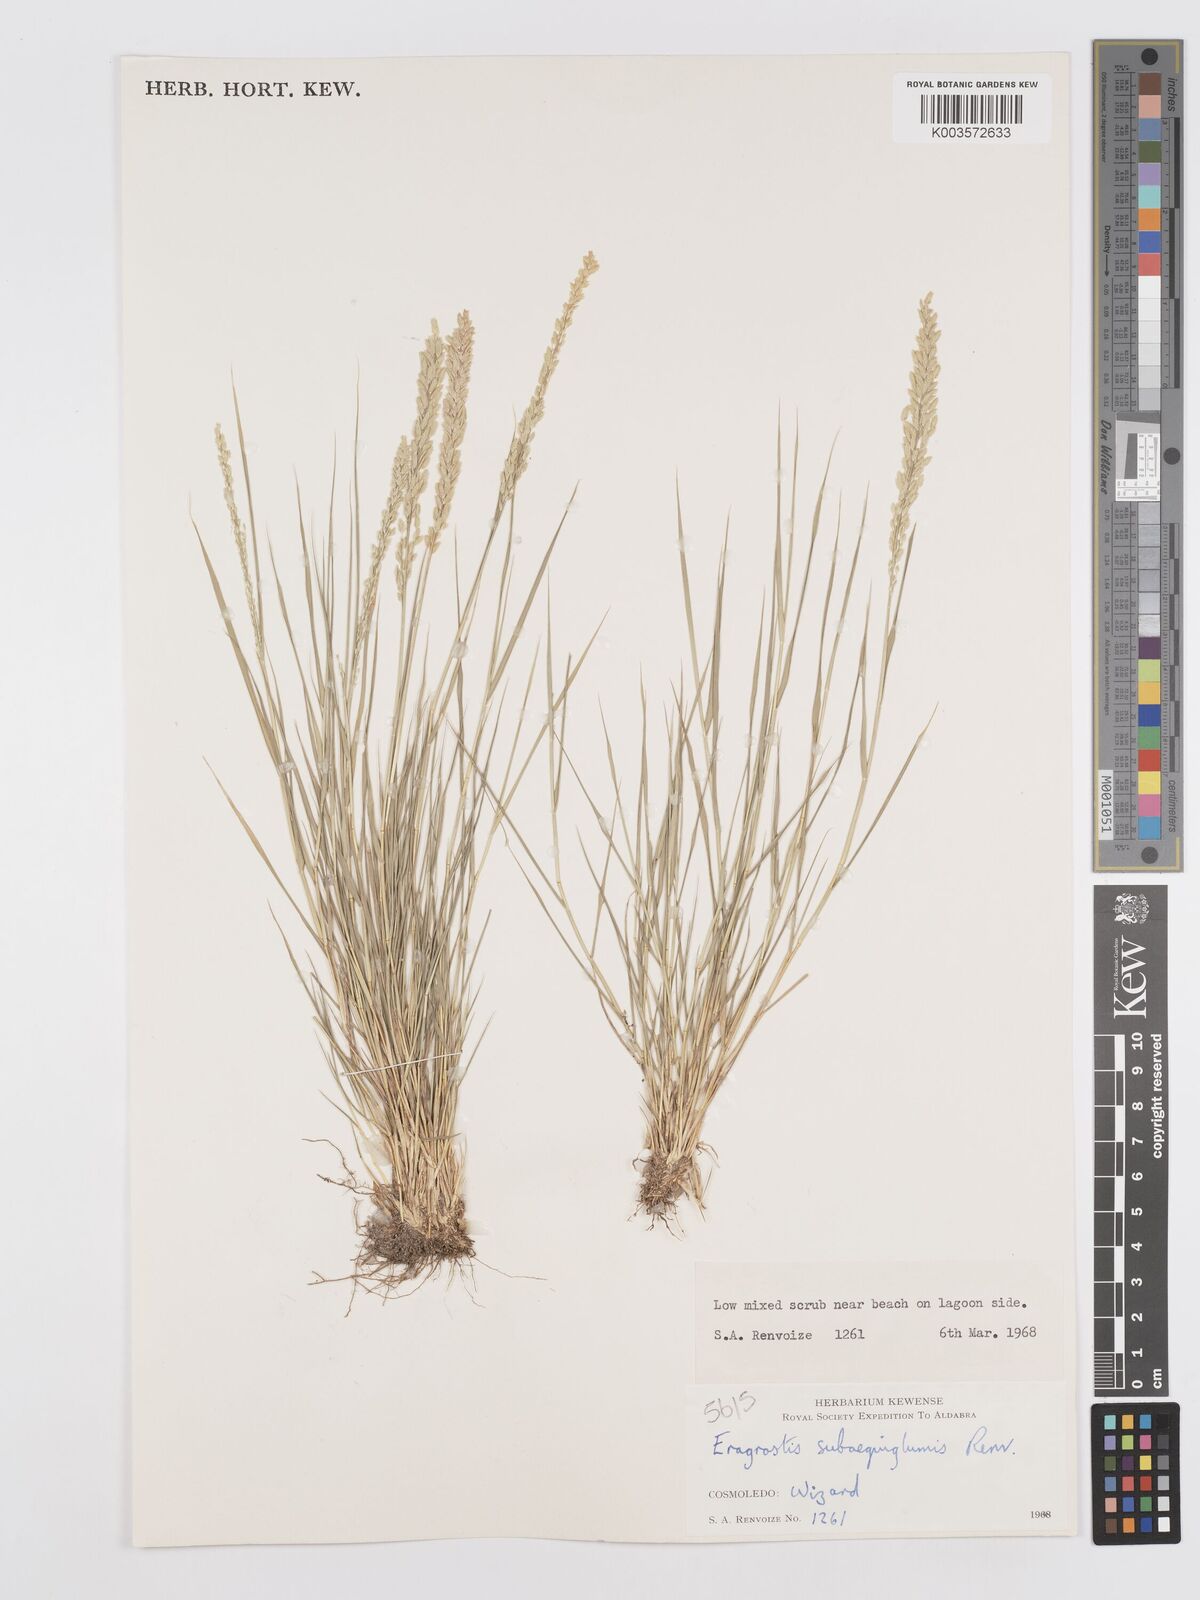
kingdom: Plantae
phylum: Tracheophyta
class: Liliopsida
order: Poales
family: Poaceae
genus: Eragrostis
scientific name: Eragrostis subaequiglumis
